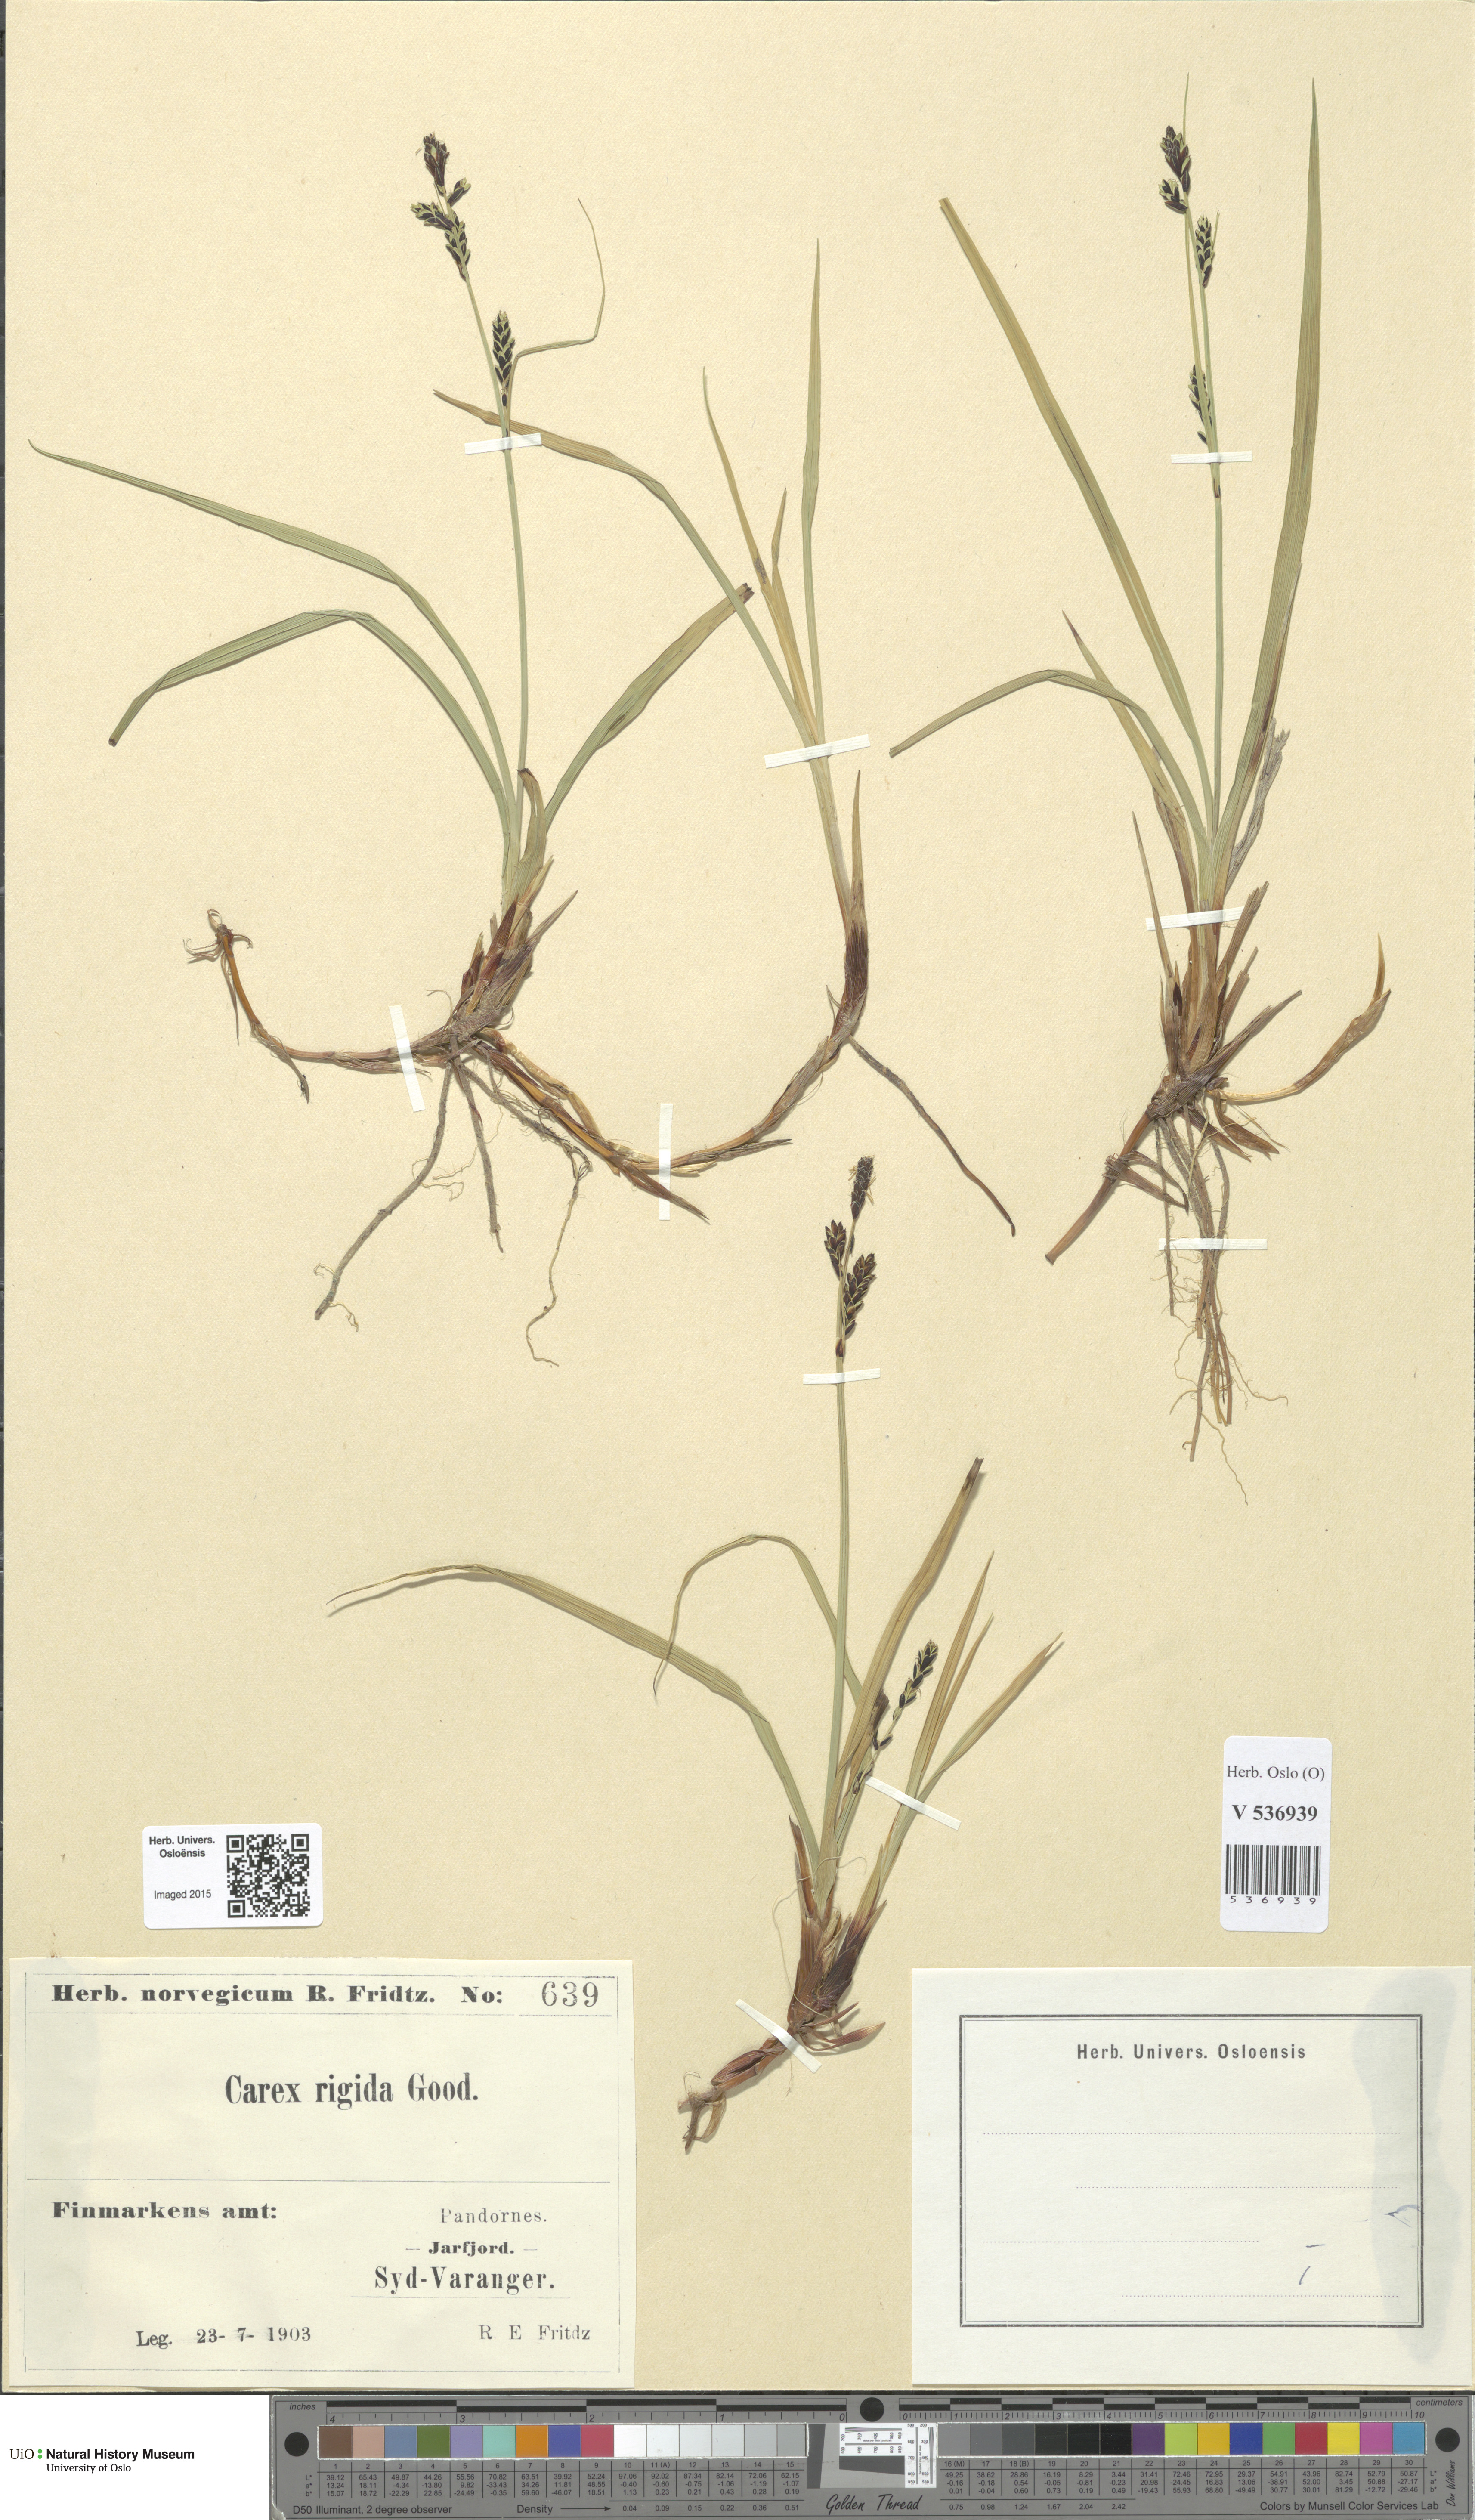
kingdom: Plantae
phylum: Tracheophyta
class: Liliopsida
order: Poales
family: Cyperaceae
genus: Carex
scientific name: Carex dacica
